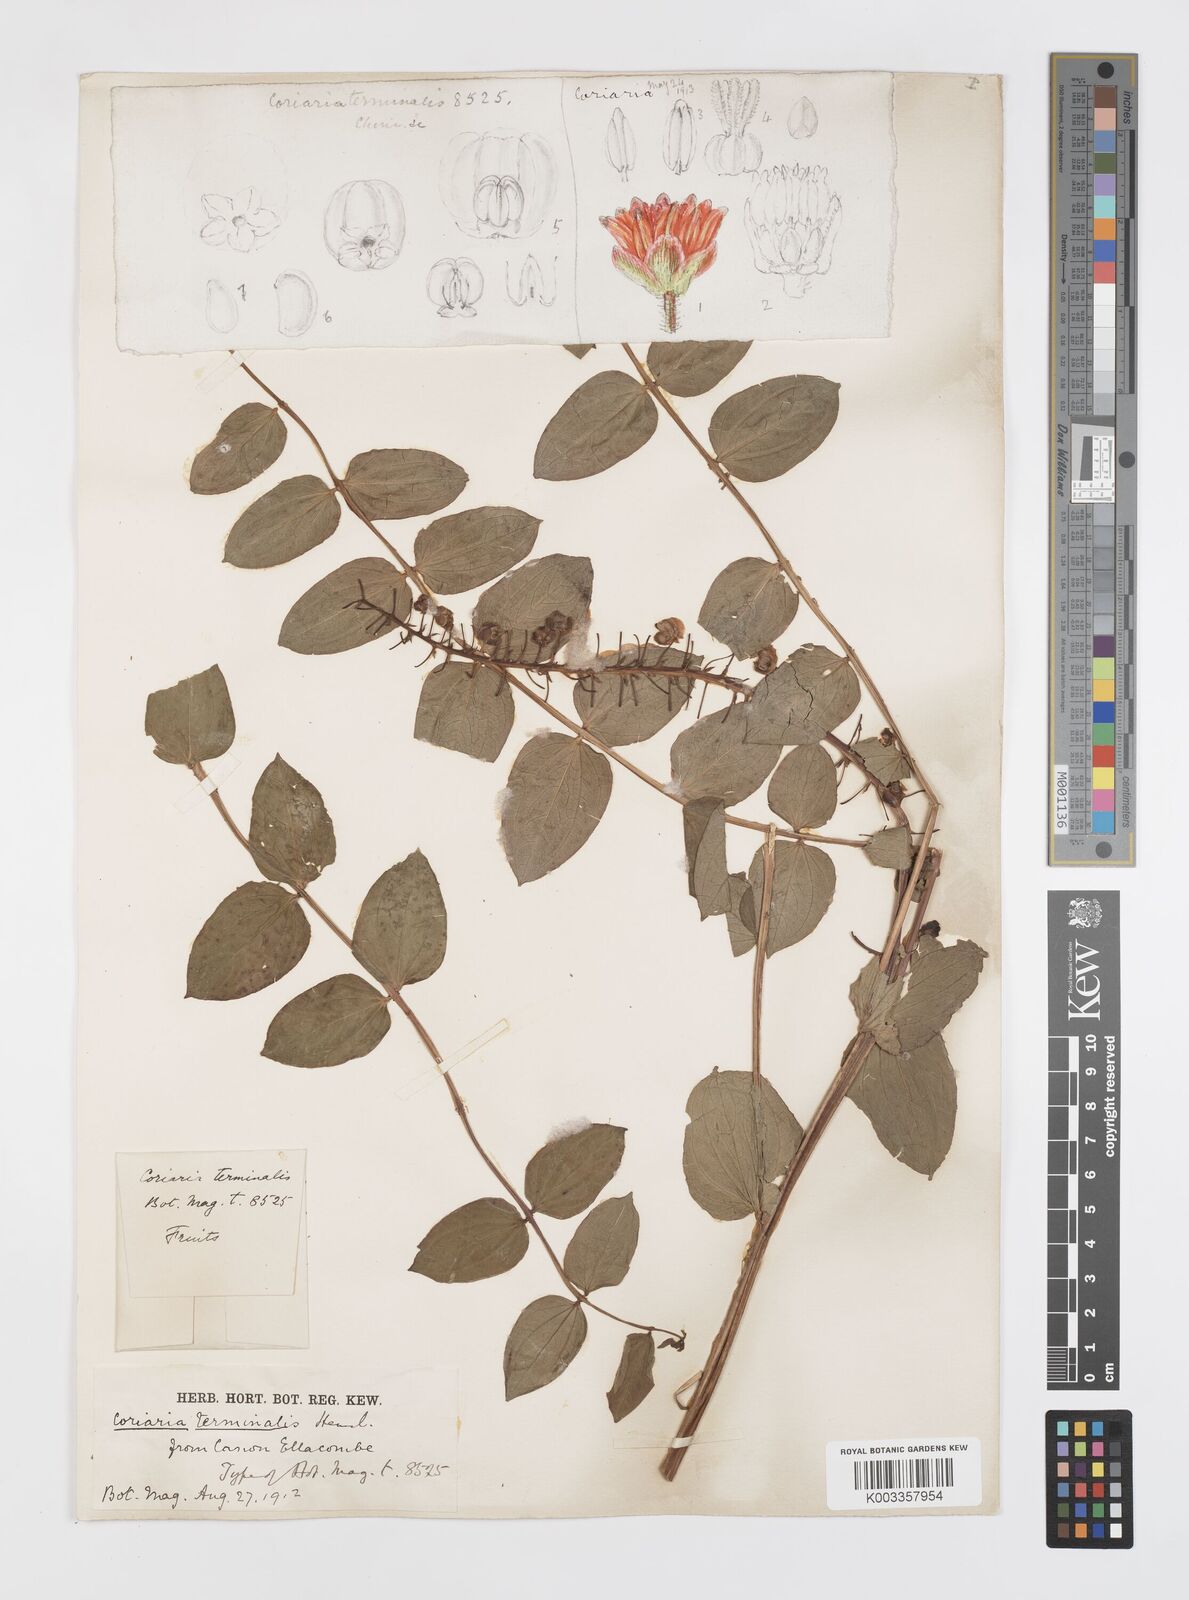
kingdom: Plantae
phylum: Tracheophyta
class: Magnoliopsida
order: Cucurbitales
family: Coriariaceae
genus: Coriaria
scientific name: Coriaria terminalis
